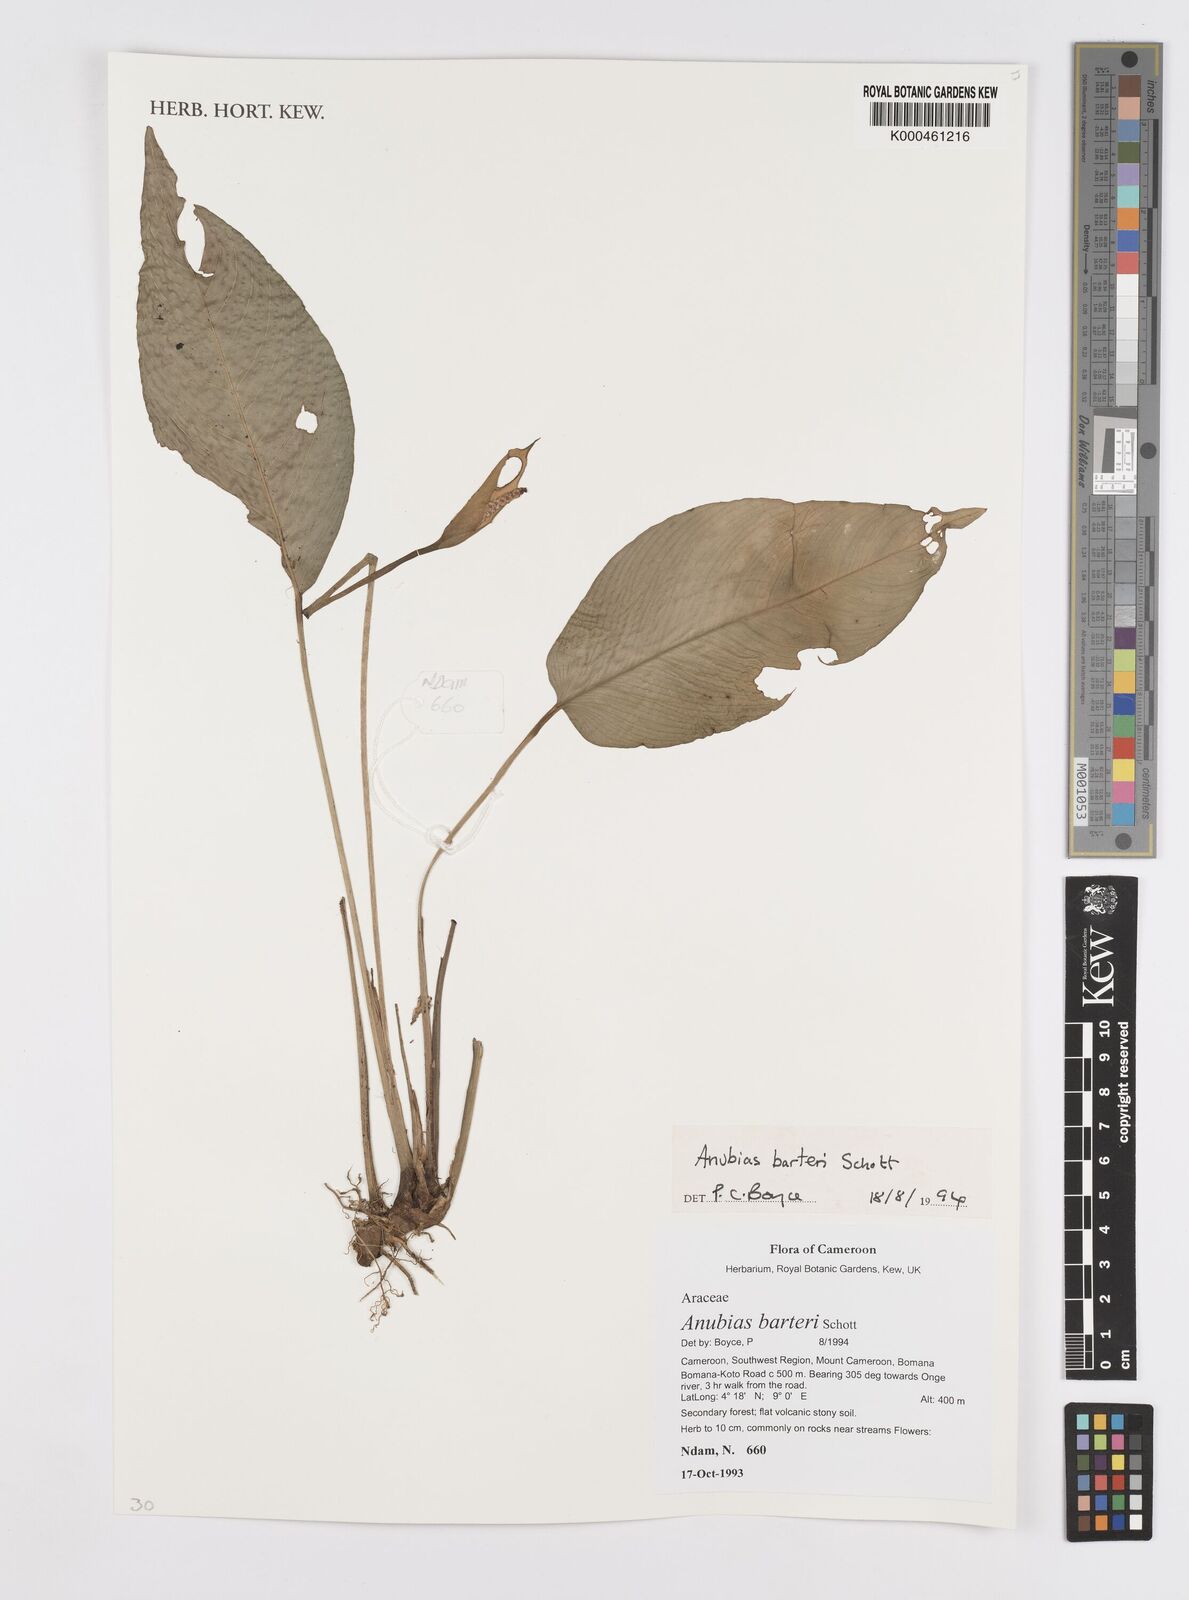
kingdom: Plantae
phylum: Tracheophyta
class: Liliopsida
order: Alismatales
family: Araceae
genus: Anubias
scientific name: Anubias barteri
